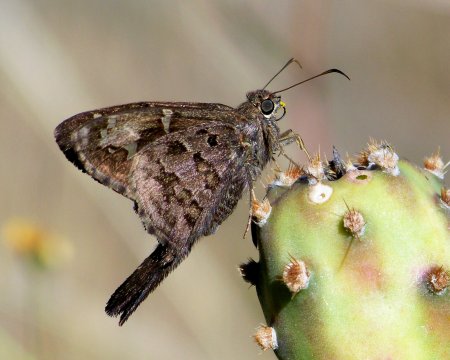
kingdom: Animalia
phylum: Arthropoda
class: Insecta
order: Lepidoptera
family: Hesperiidae
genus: Urbanus
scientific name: Urbanus dorantes
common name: Dorantes Longtail
